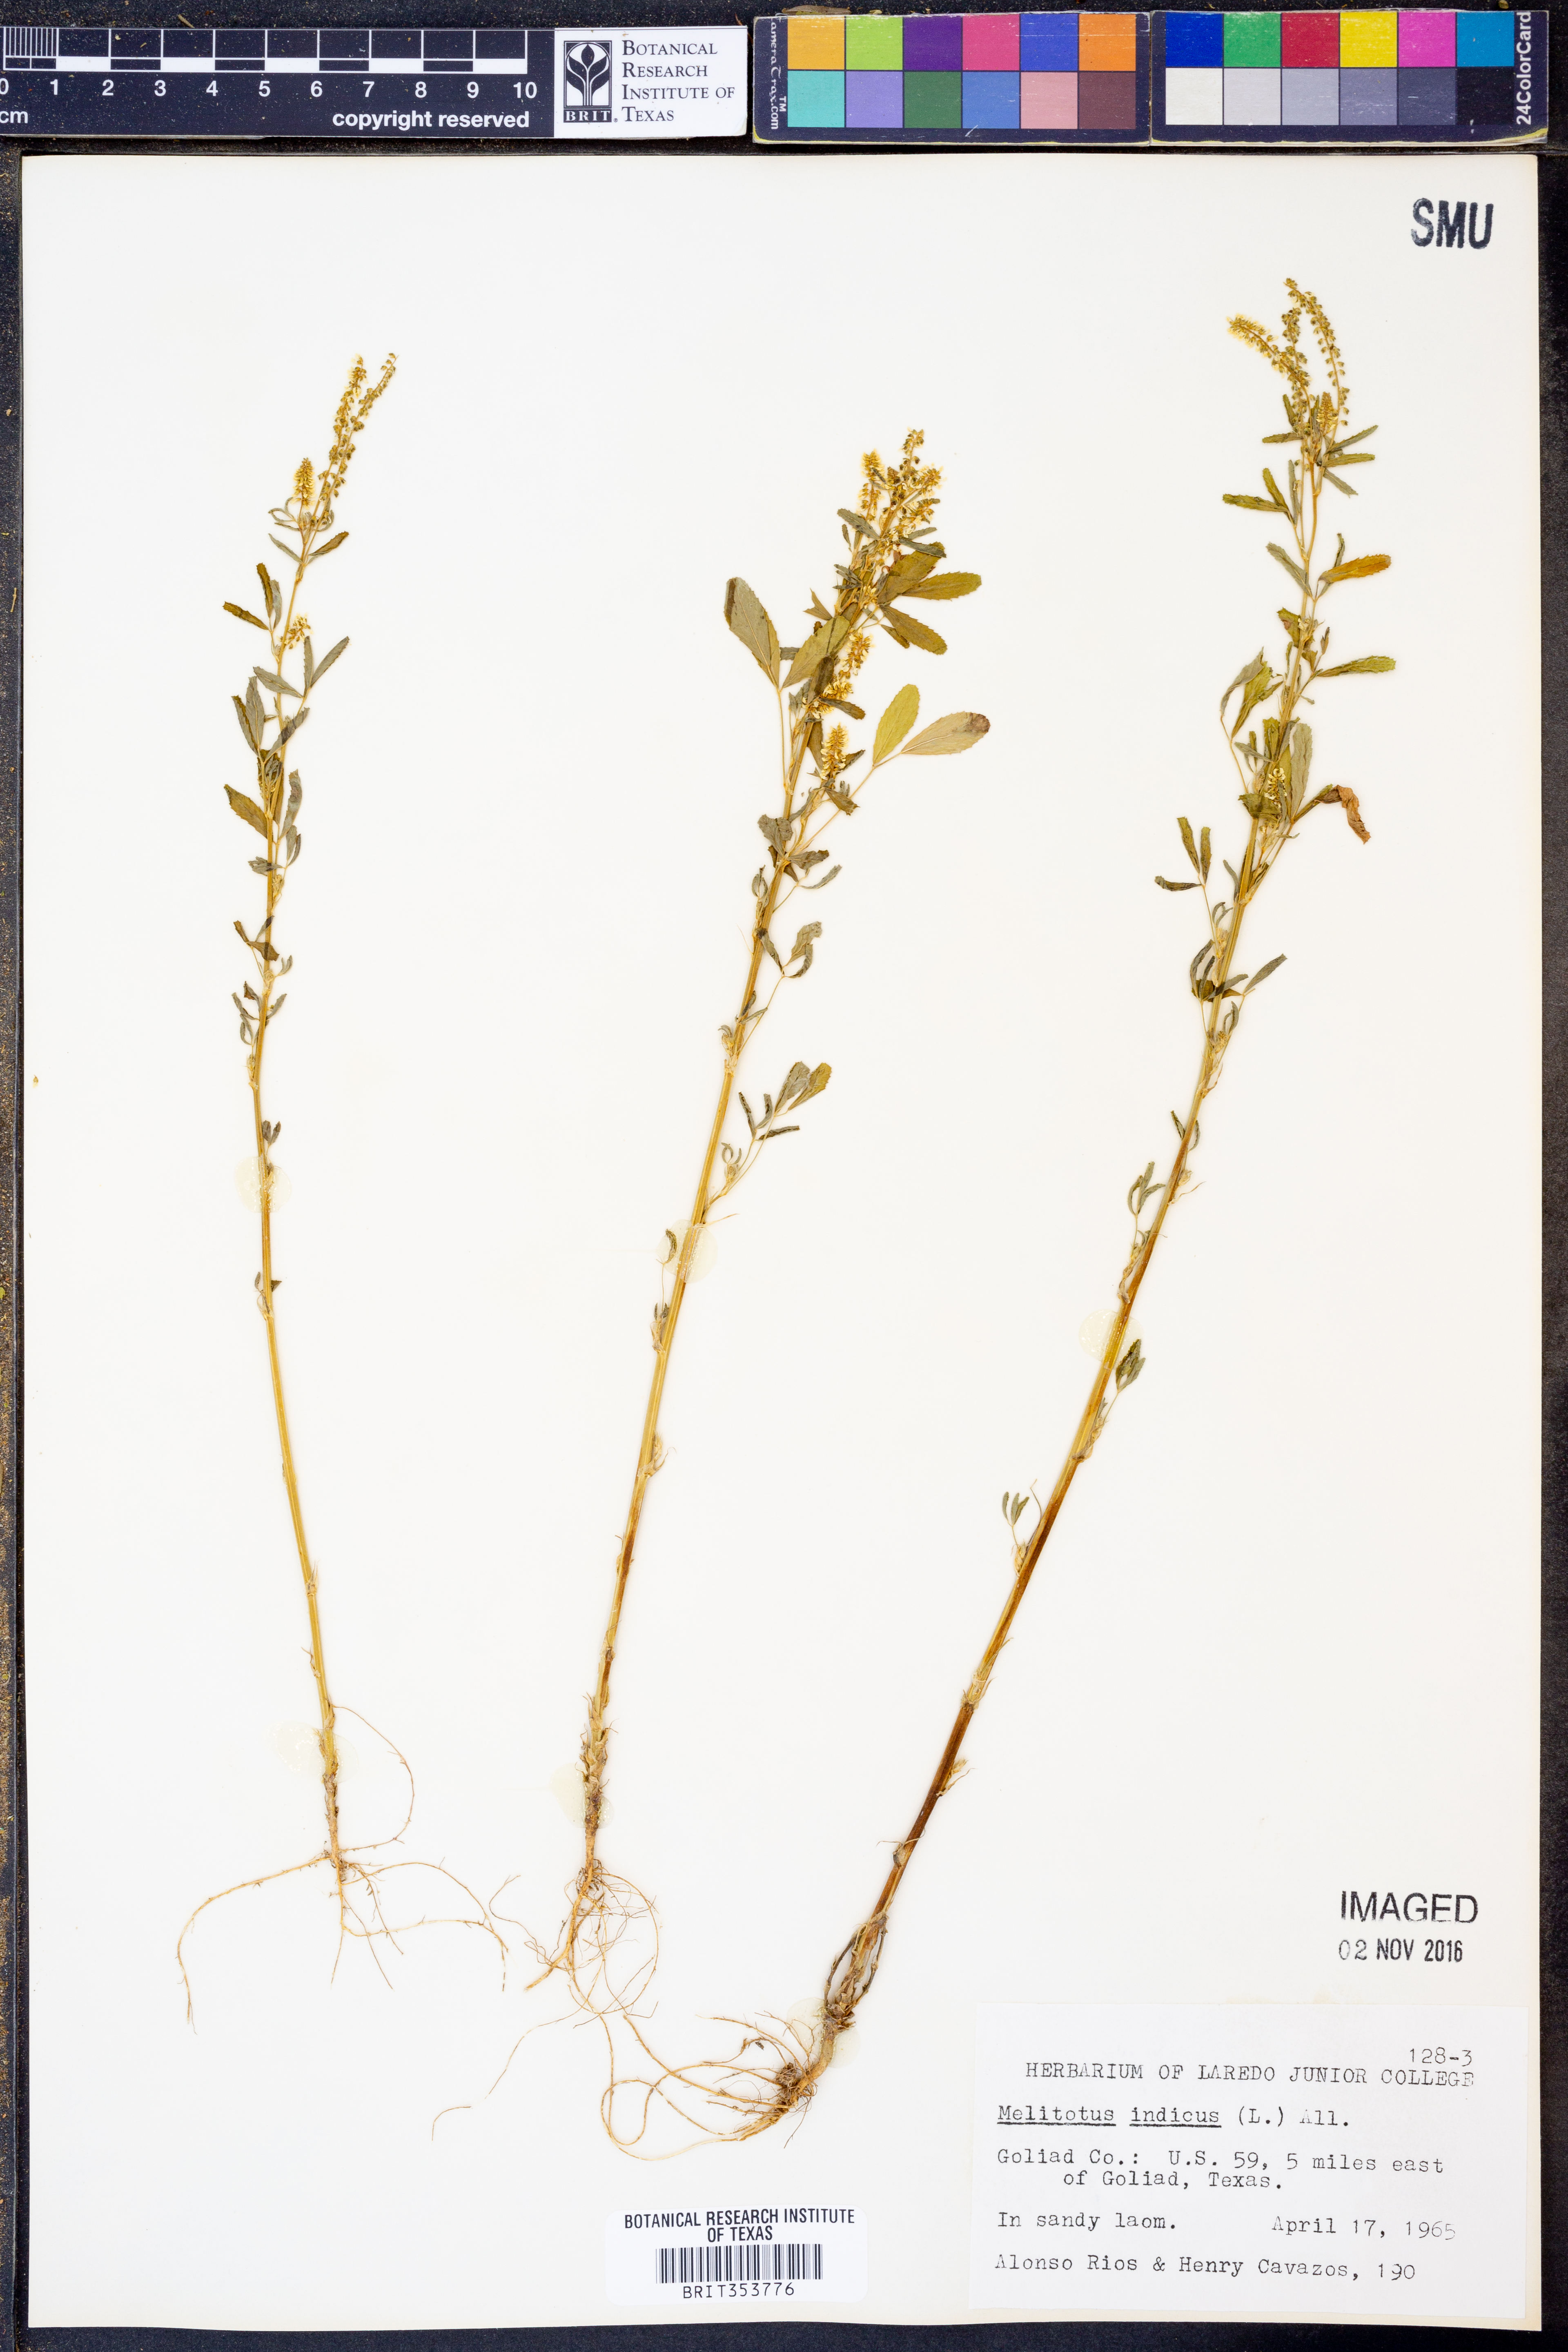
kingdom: Plantae
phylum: Tracheophyta
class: Magnoliopsida
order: Fabales
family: Fabaceae
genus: Melilotus
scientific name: Melilotus indicus
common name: Small melilot
